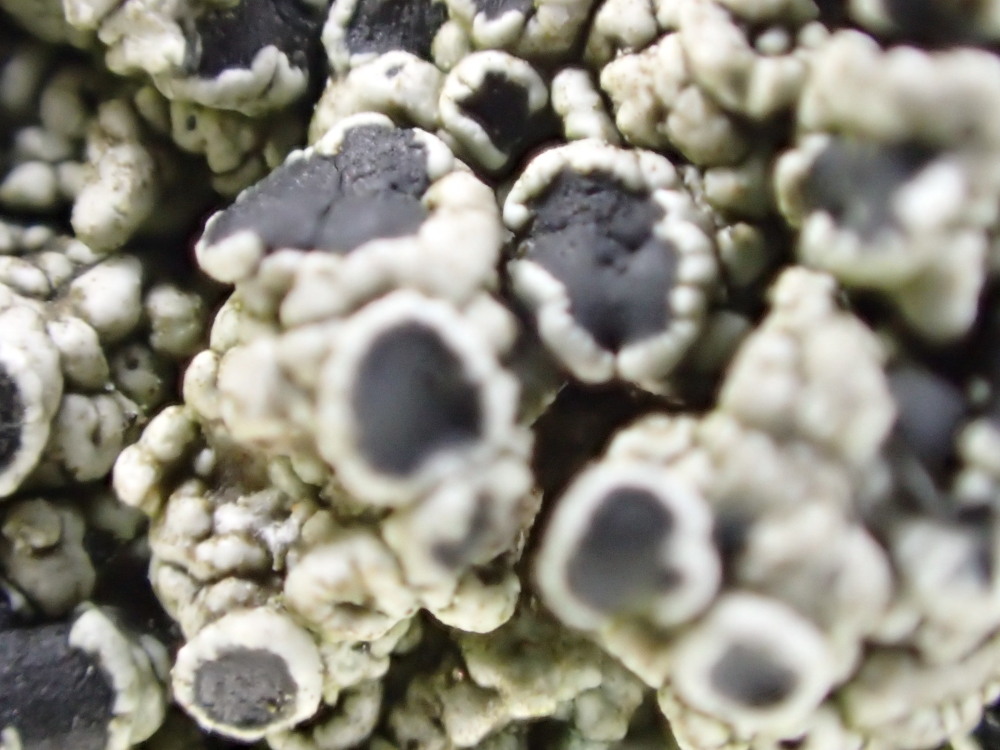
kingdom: Fungi
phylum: Ascomycota
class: Lecanoromycetes
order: Lecanorales
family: Tephromelataceae
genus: Tephromela
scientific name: Tephromela atra
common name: sortfrugtet kantskivelav
